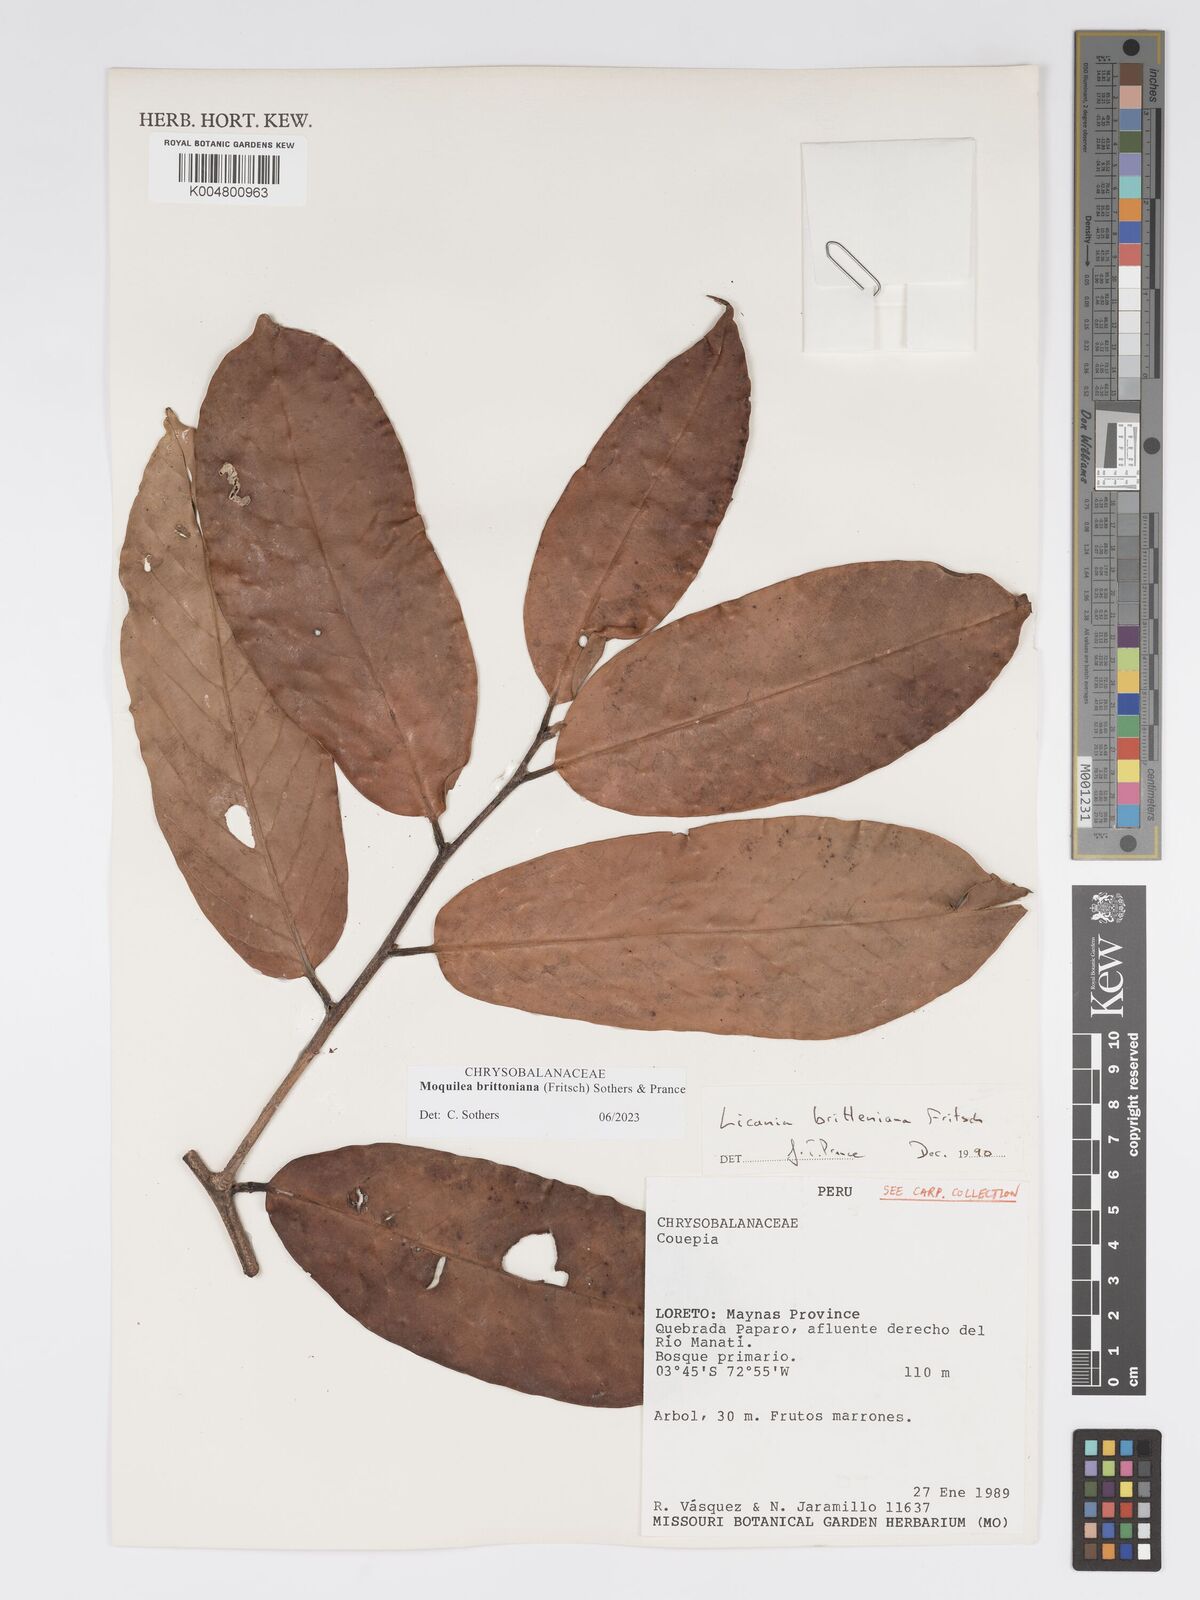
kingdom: Plantae
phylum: Tracheophyta
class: Magnoliopsida
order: Malpighiales
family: Chrysobalanaceae
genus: Moquilea
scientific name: Moquilea brittoniana
